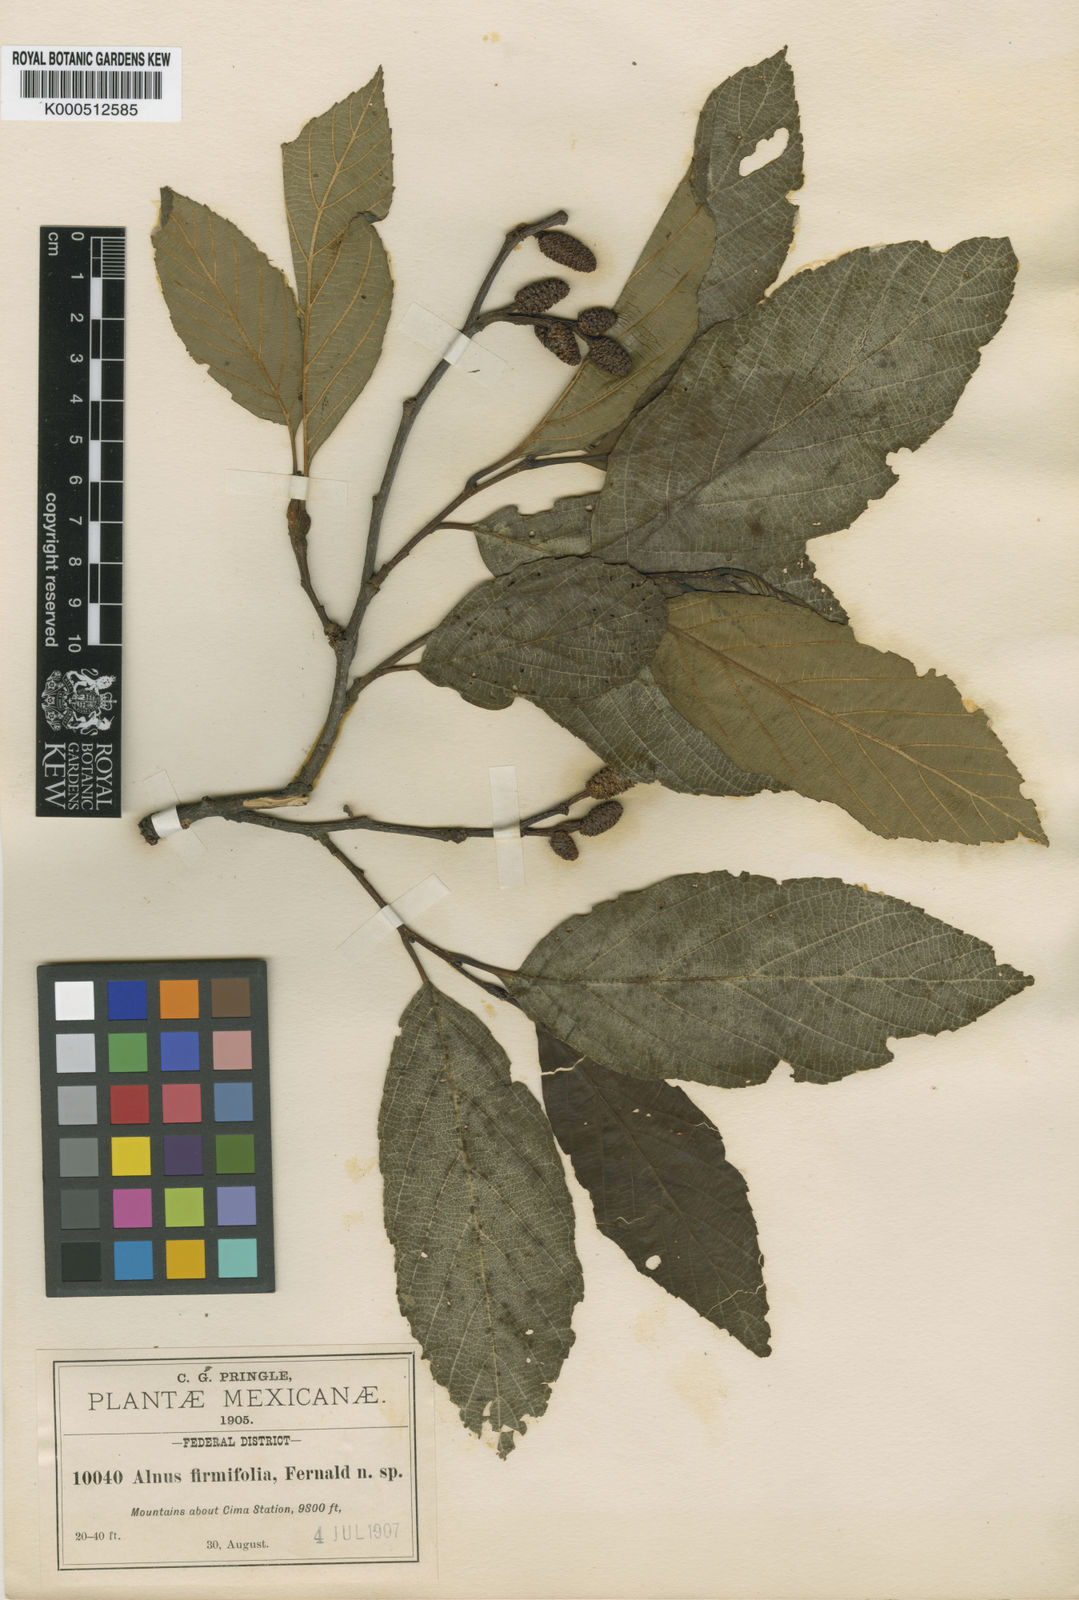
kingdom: Plantae
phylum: Tracheophyta
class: Magnoliopsida
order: Fagales
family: Betulaceae
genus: Alnus
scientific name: Alnus jorullensis
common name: Evergreen alder
